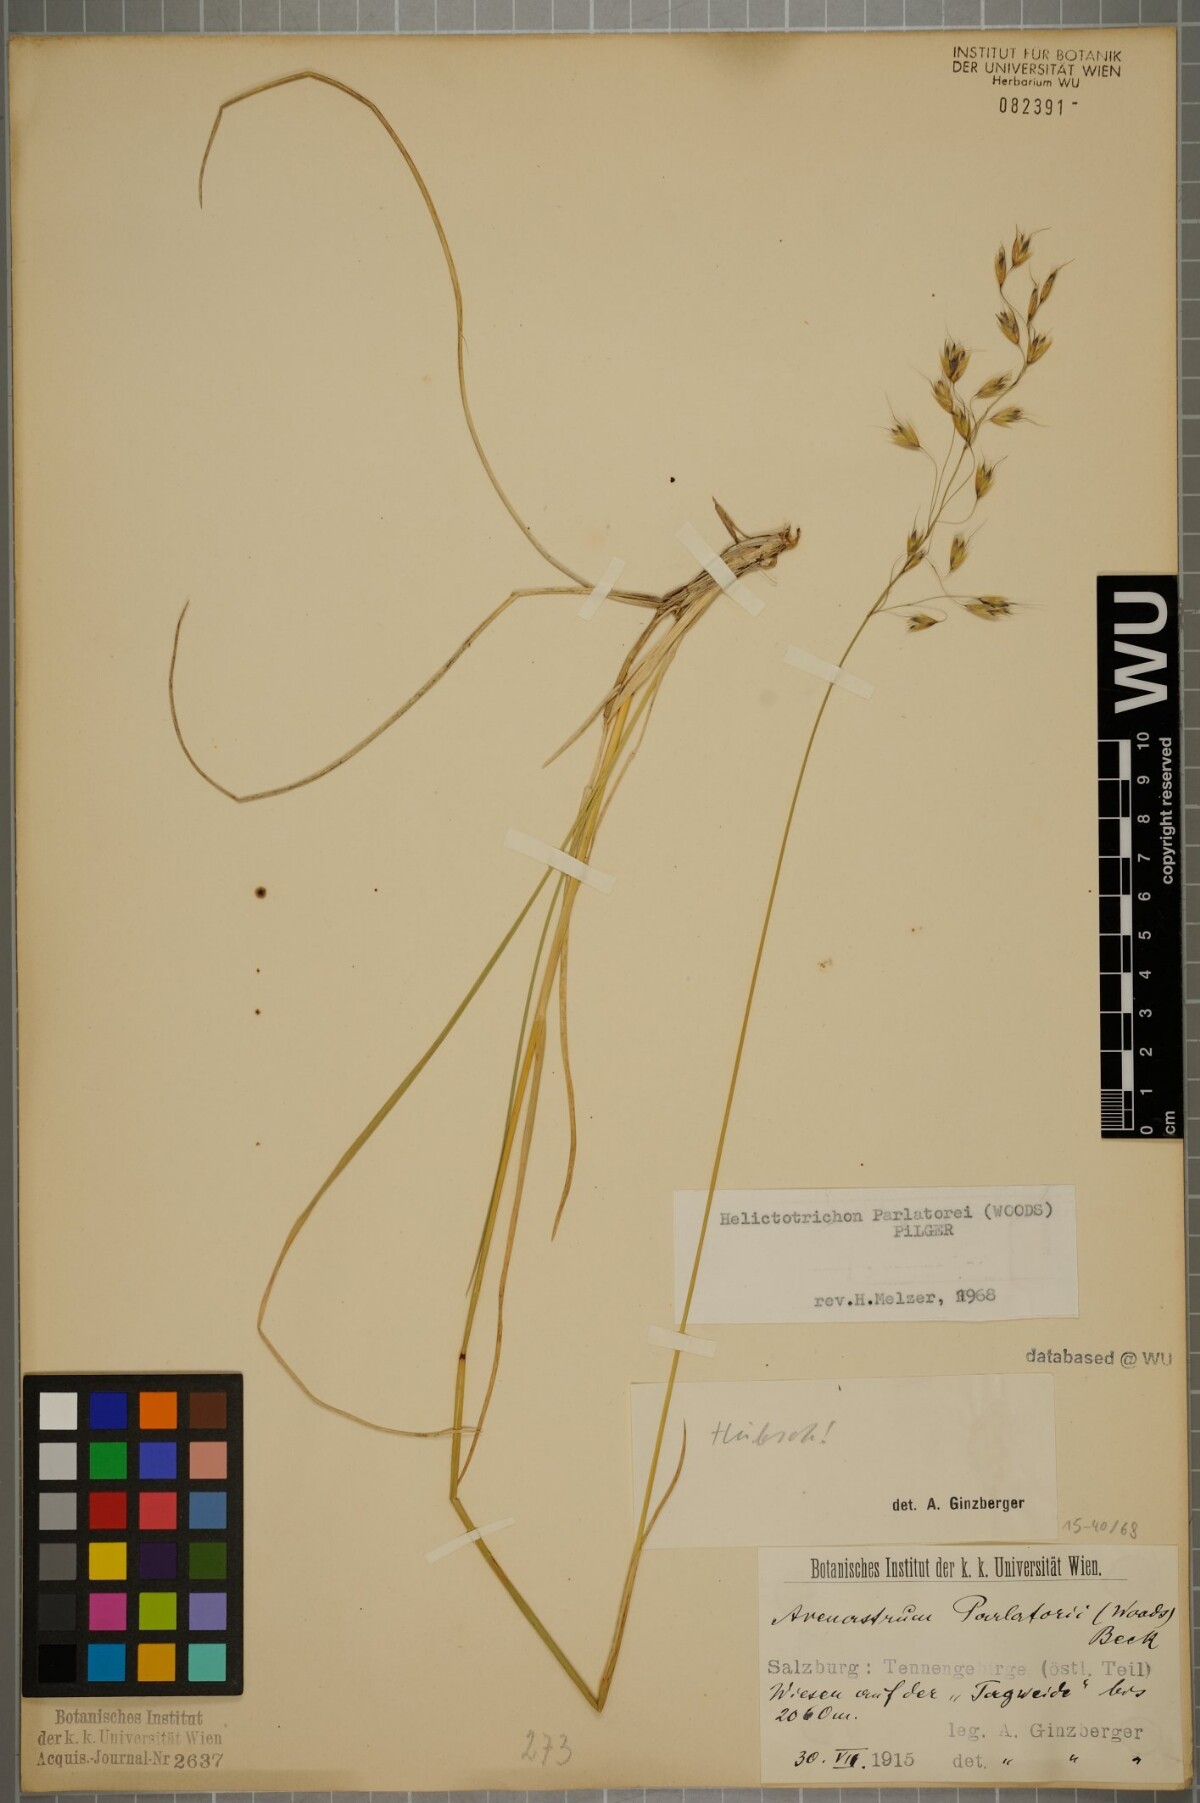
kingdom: Plantae
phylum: Tracheophyta
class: Liliopsida
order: Poales
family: Poaceae
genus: Helictotrichon
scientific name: Helictotrichon parlatorei
